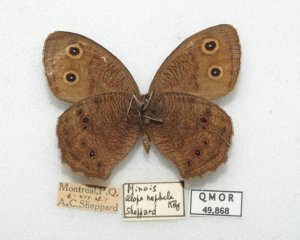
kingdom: Animalia
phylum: Arthropoda
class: Insecta
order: Lepidoptera
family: Nymphalidae
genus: Cercyonis
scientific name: Cercyonis pegala
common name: Common Wood-Nymph
